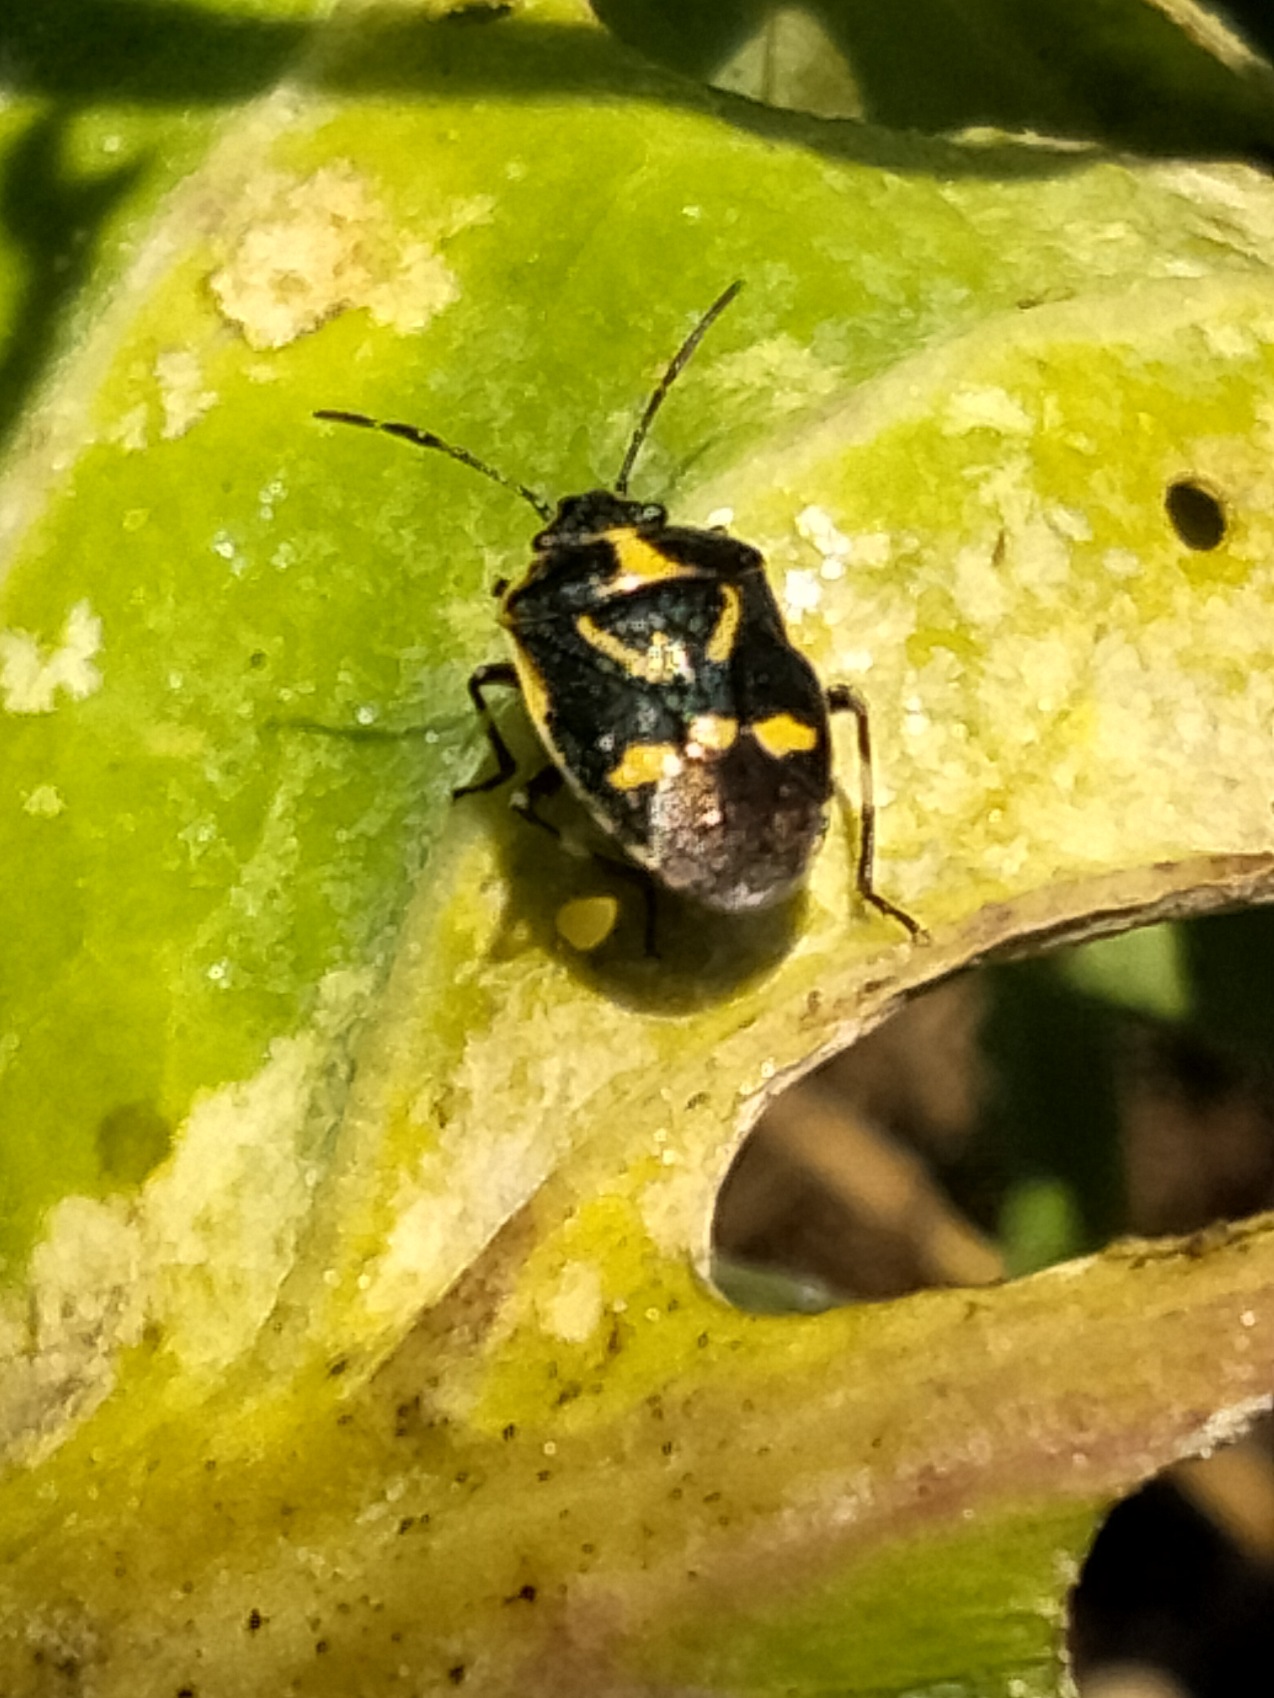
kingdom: Animalia
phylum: Arthropoda
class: Insecta
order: Hemiptera
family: Pentatomidae
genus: Eurydema
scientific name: Eurydema oleracea
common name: Almindelig kåltæge
